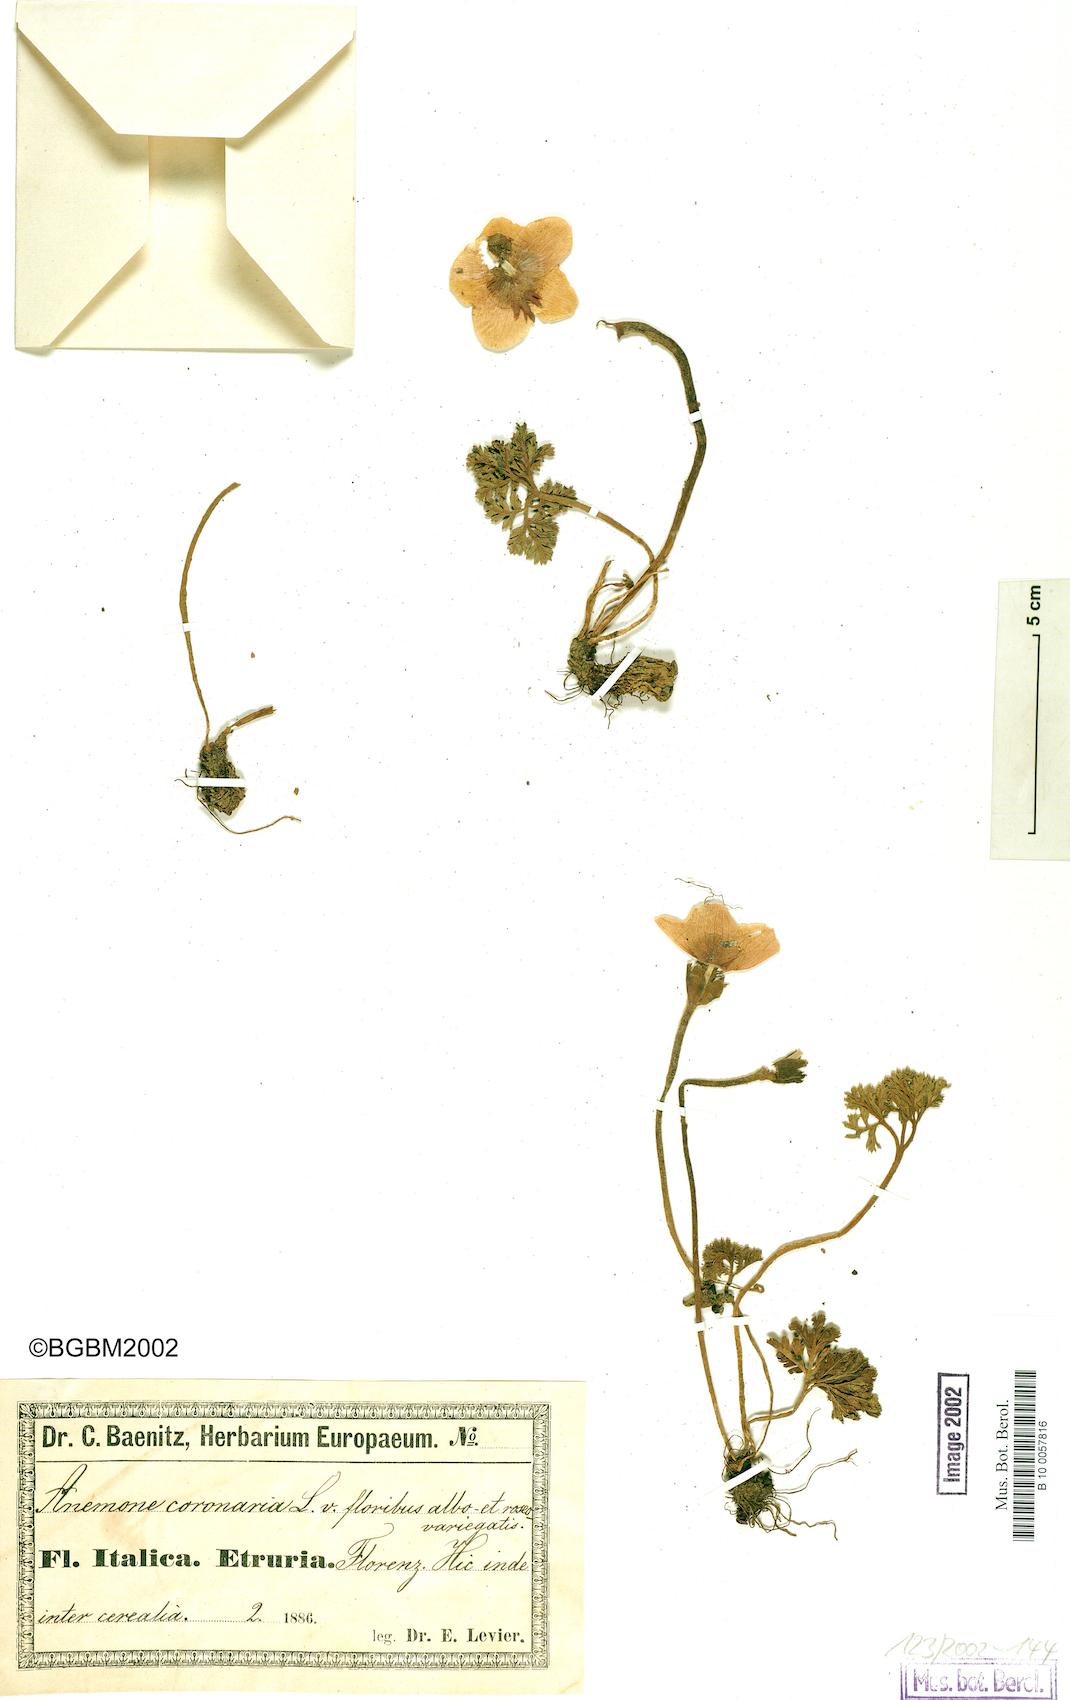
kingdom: Plantae
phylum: Tracheophyta
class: Magnoliopsida
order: Ranunculales
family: Ranunculaceae
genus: Anemone
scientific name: Anemone coronaria
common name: Poppy anemone
